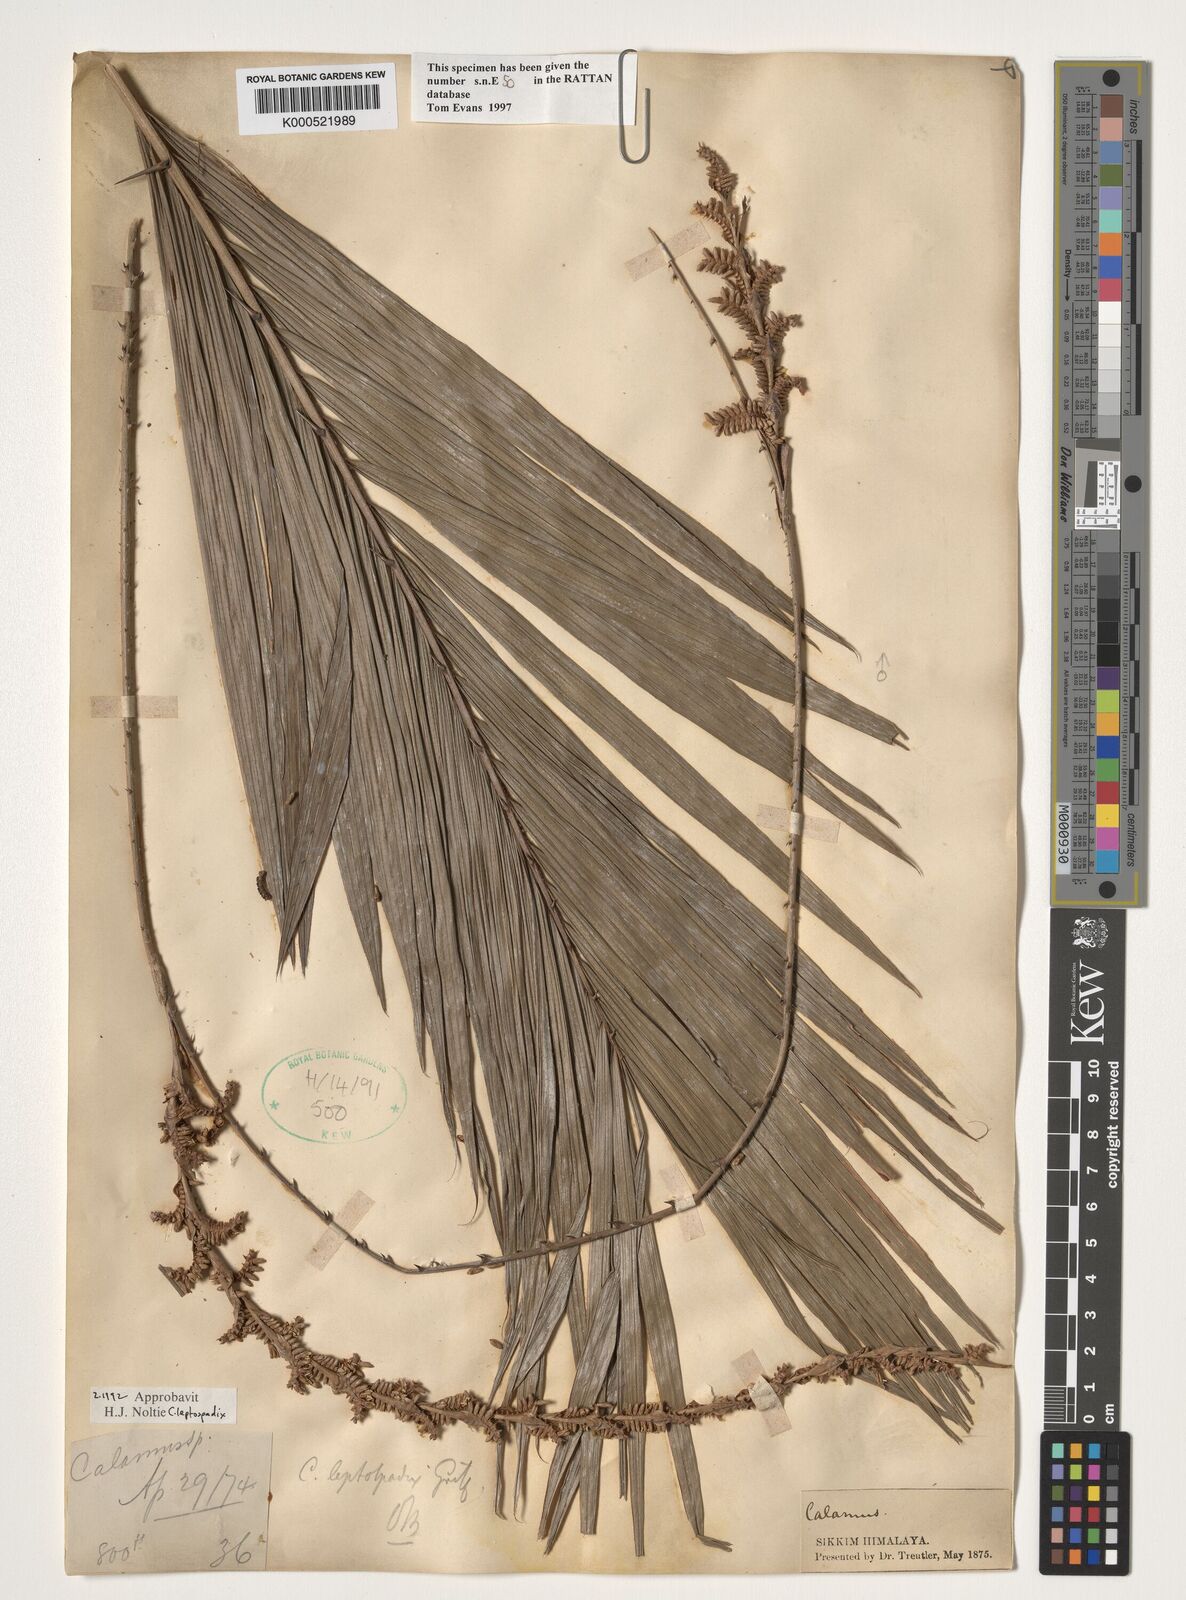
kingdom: Plantae
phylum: Tracheophyta
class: Liliopsida
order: Arecales
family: Arecaceae
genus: Calamus
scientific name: Calamus leptospadix
